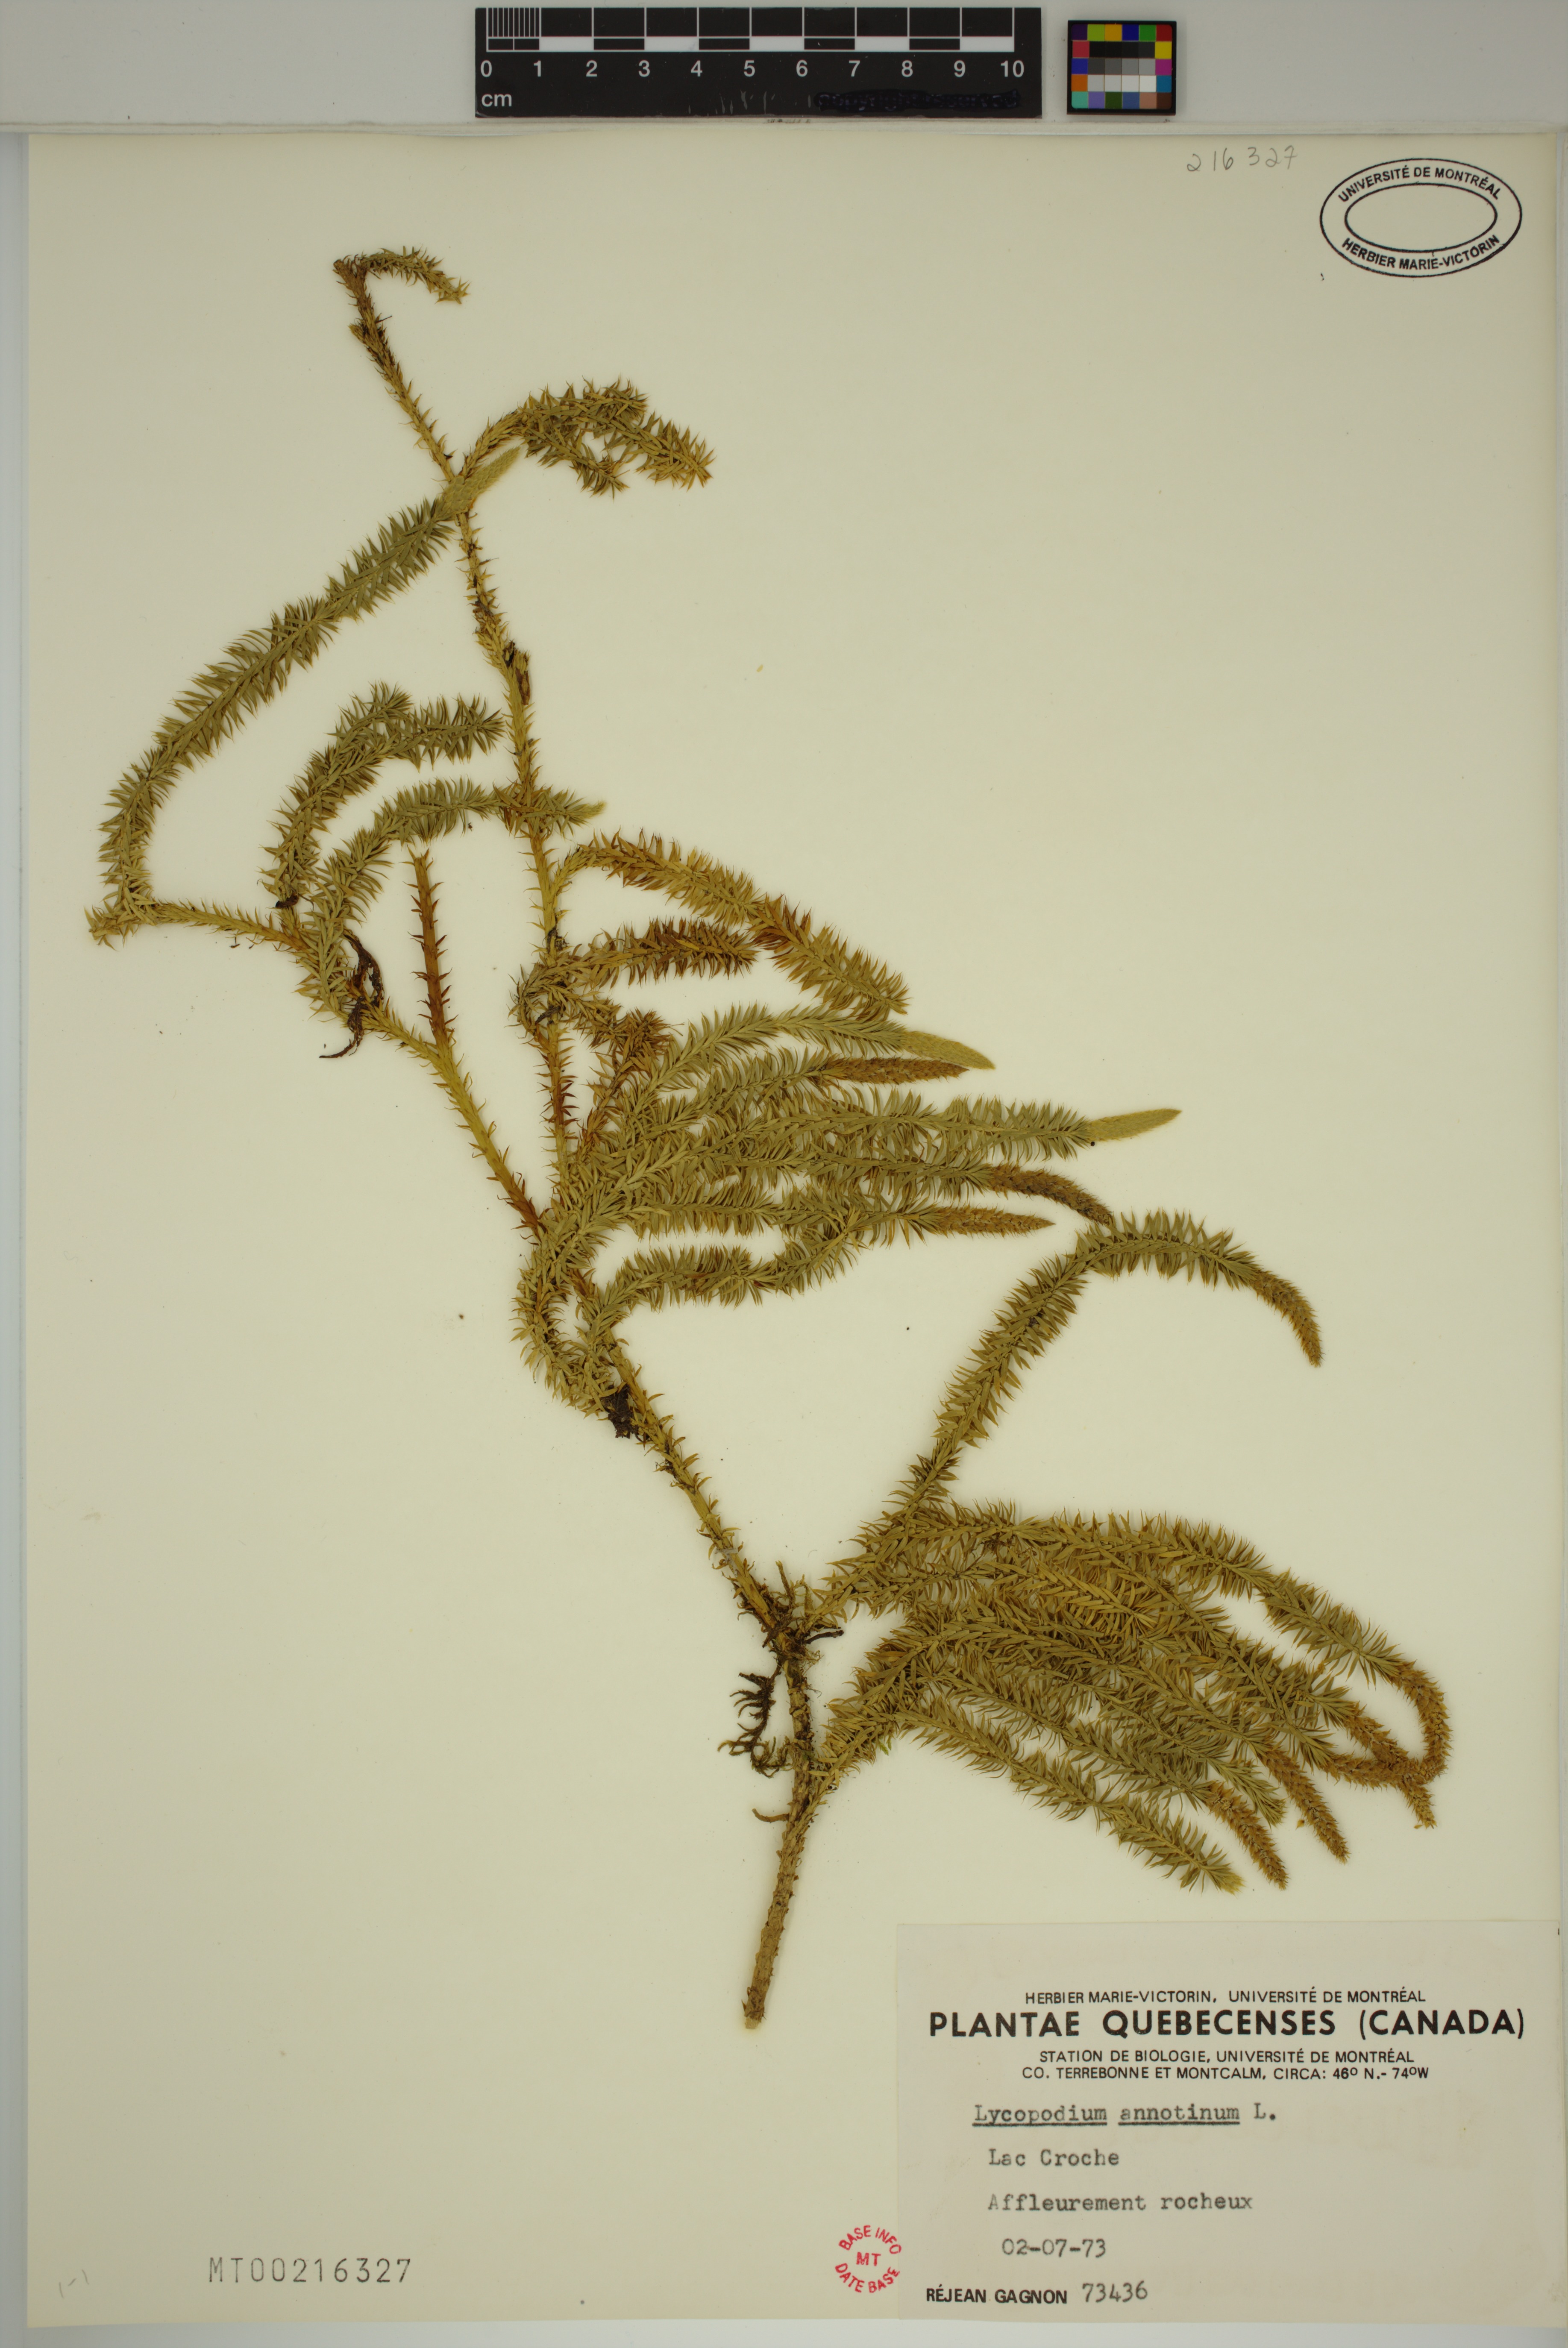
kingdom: Plantae
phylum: Tracheophyta
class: Lycopodiopsida
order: Lycopodiales
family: Lycopodiaceae
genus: Spinulum
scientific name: Spinulum annotinum
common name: Interrupted club-moss
